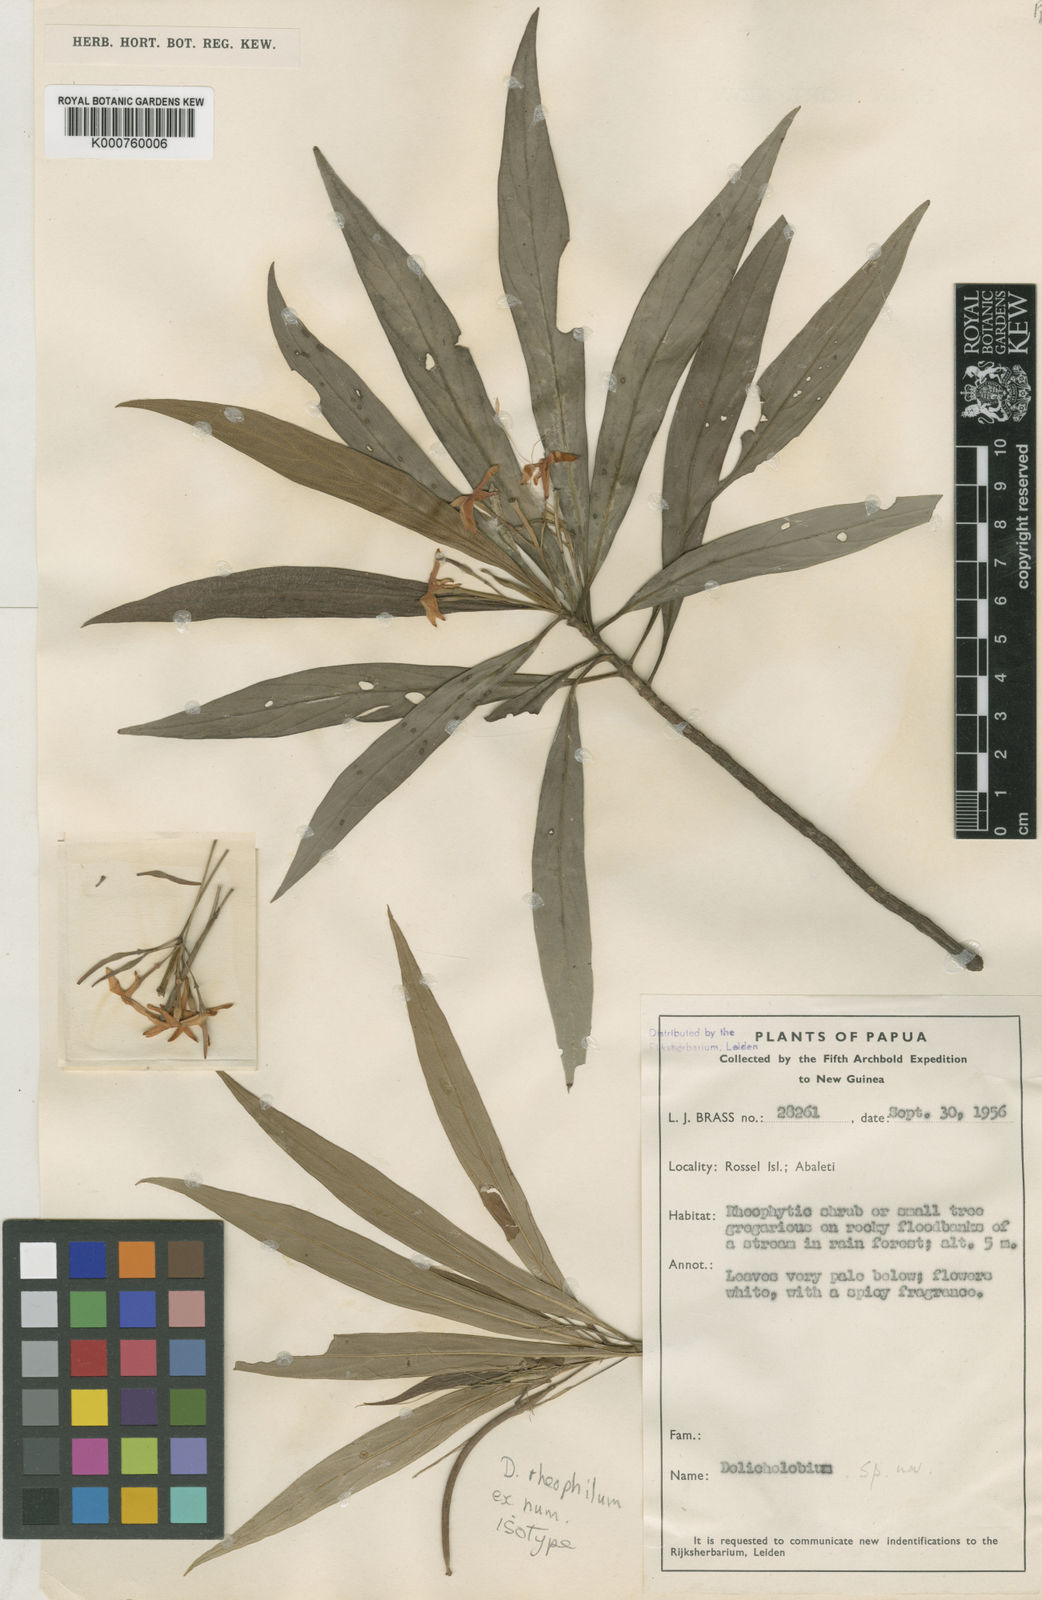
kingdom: Plantae
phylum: Tracheophyta
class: Magnoliopsida
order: Gentianales
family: Rubiaceae
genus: Dolicholobium
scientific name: Dolicholobium rheophilum
